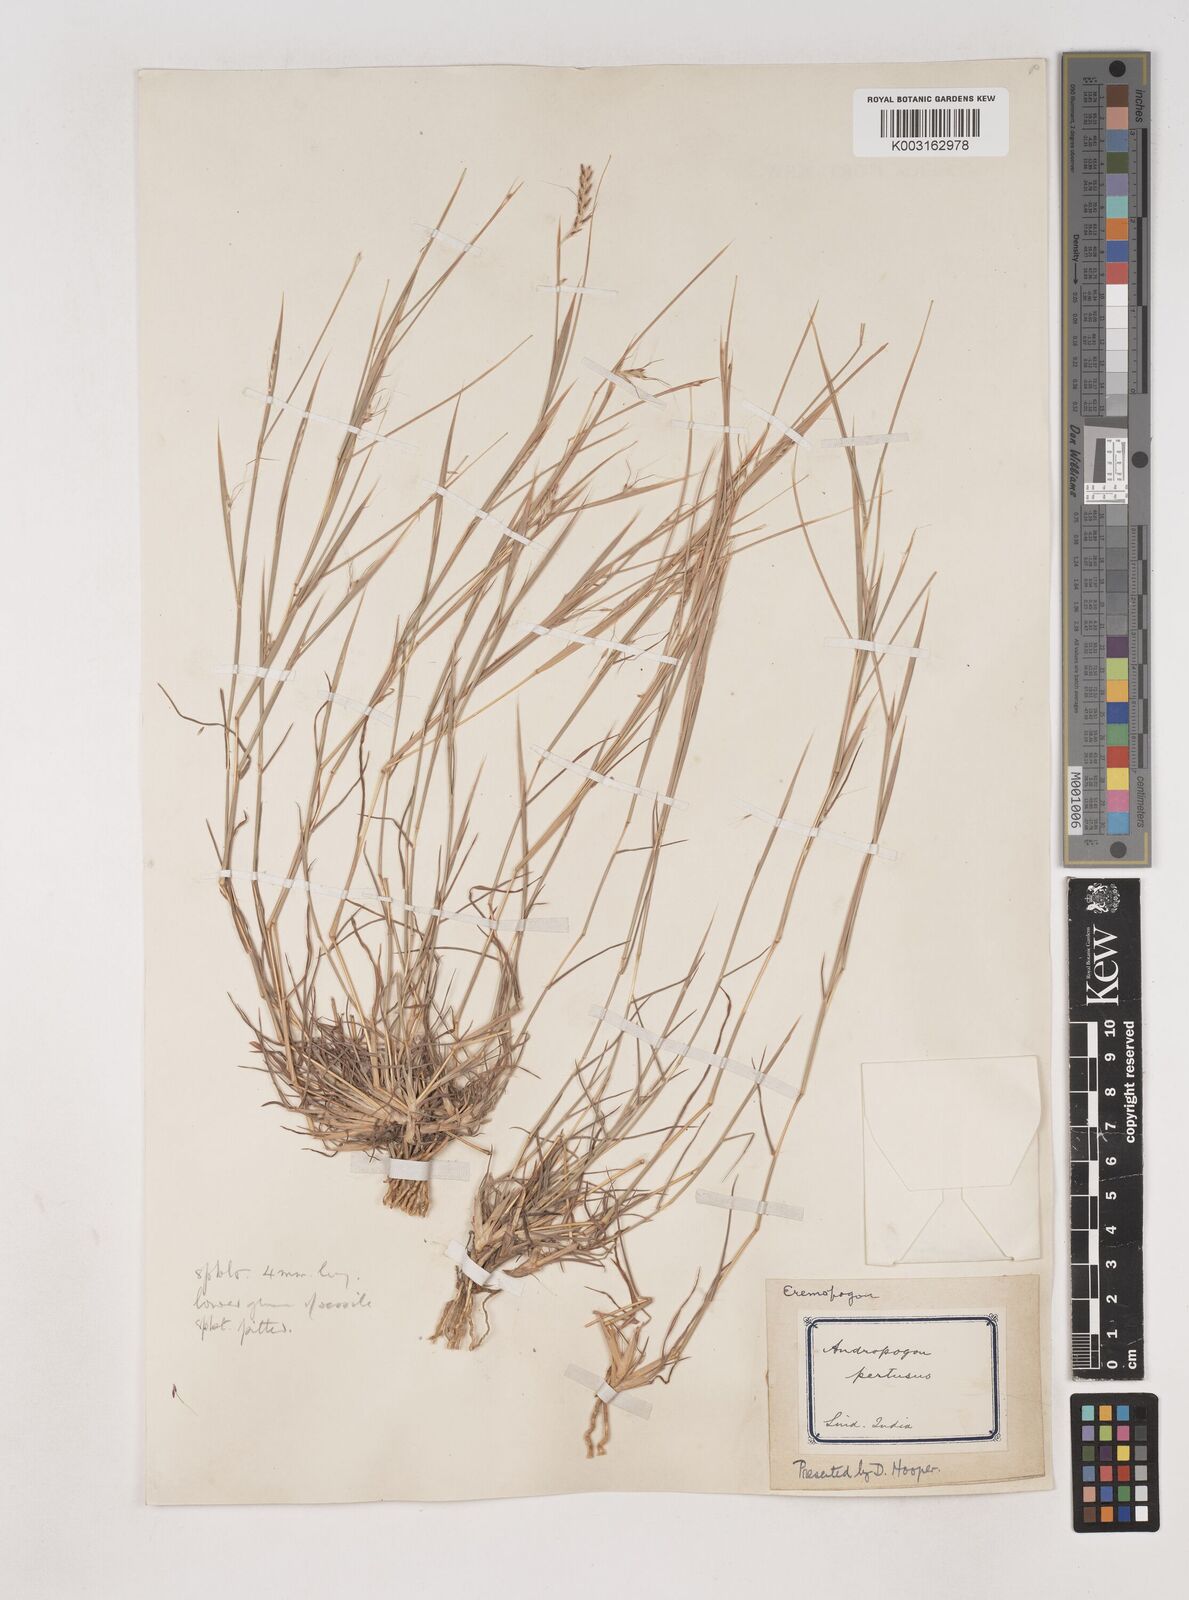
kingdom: Plantae
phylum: Tracheophyta
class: Liliopsida
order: Poales
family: Poaceae
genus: Dichanthium
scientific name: Dichanthium foveolatum
